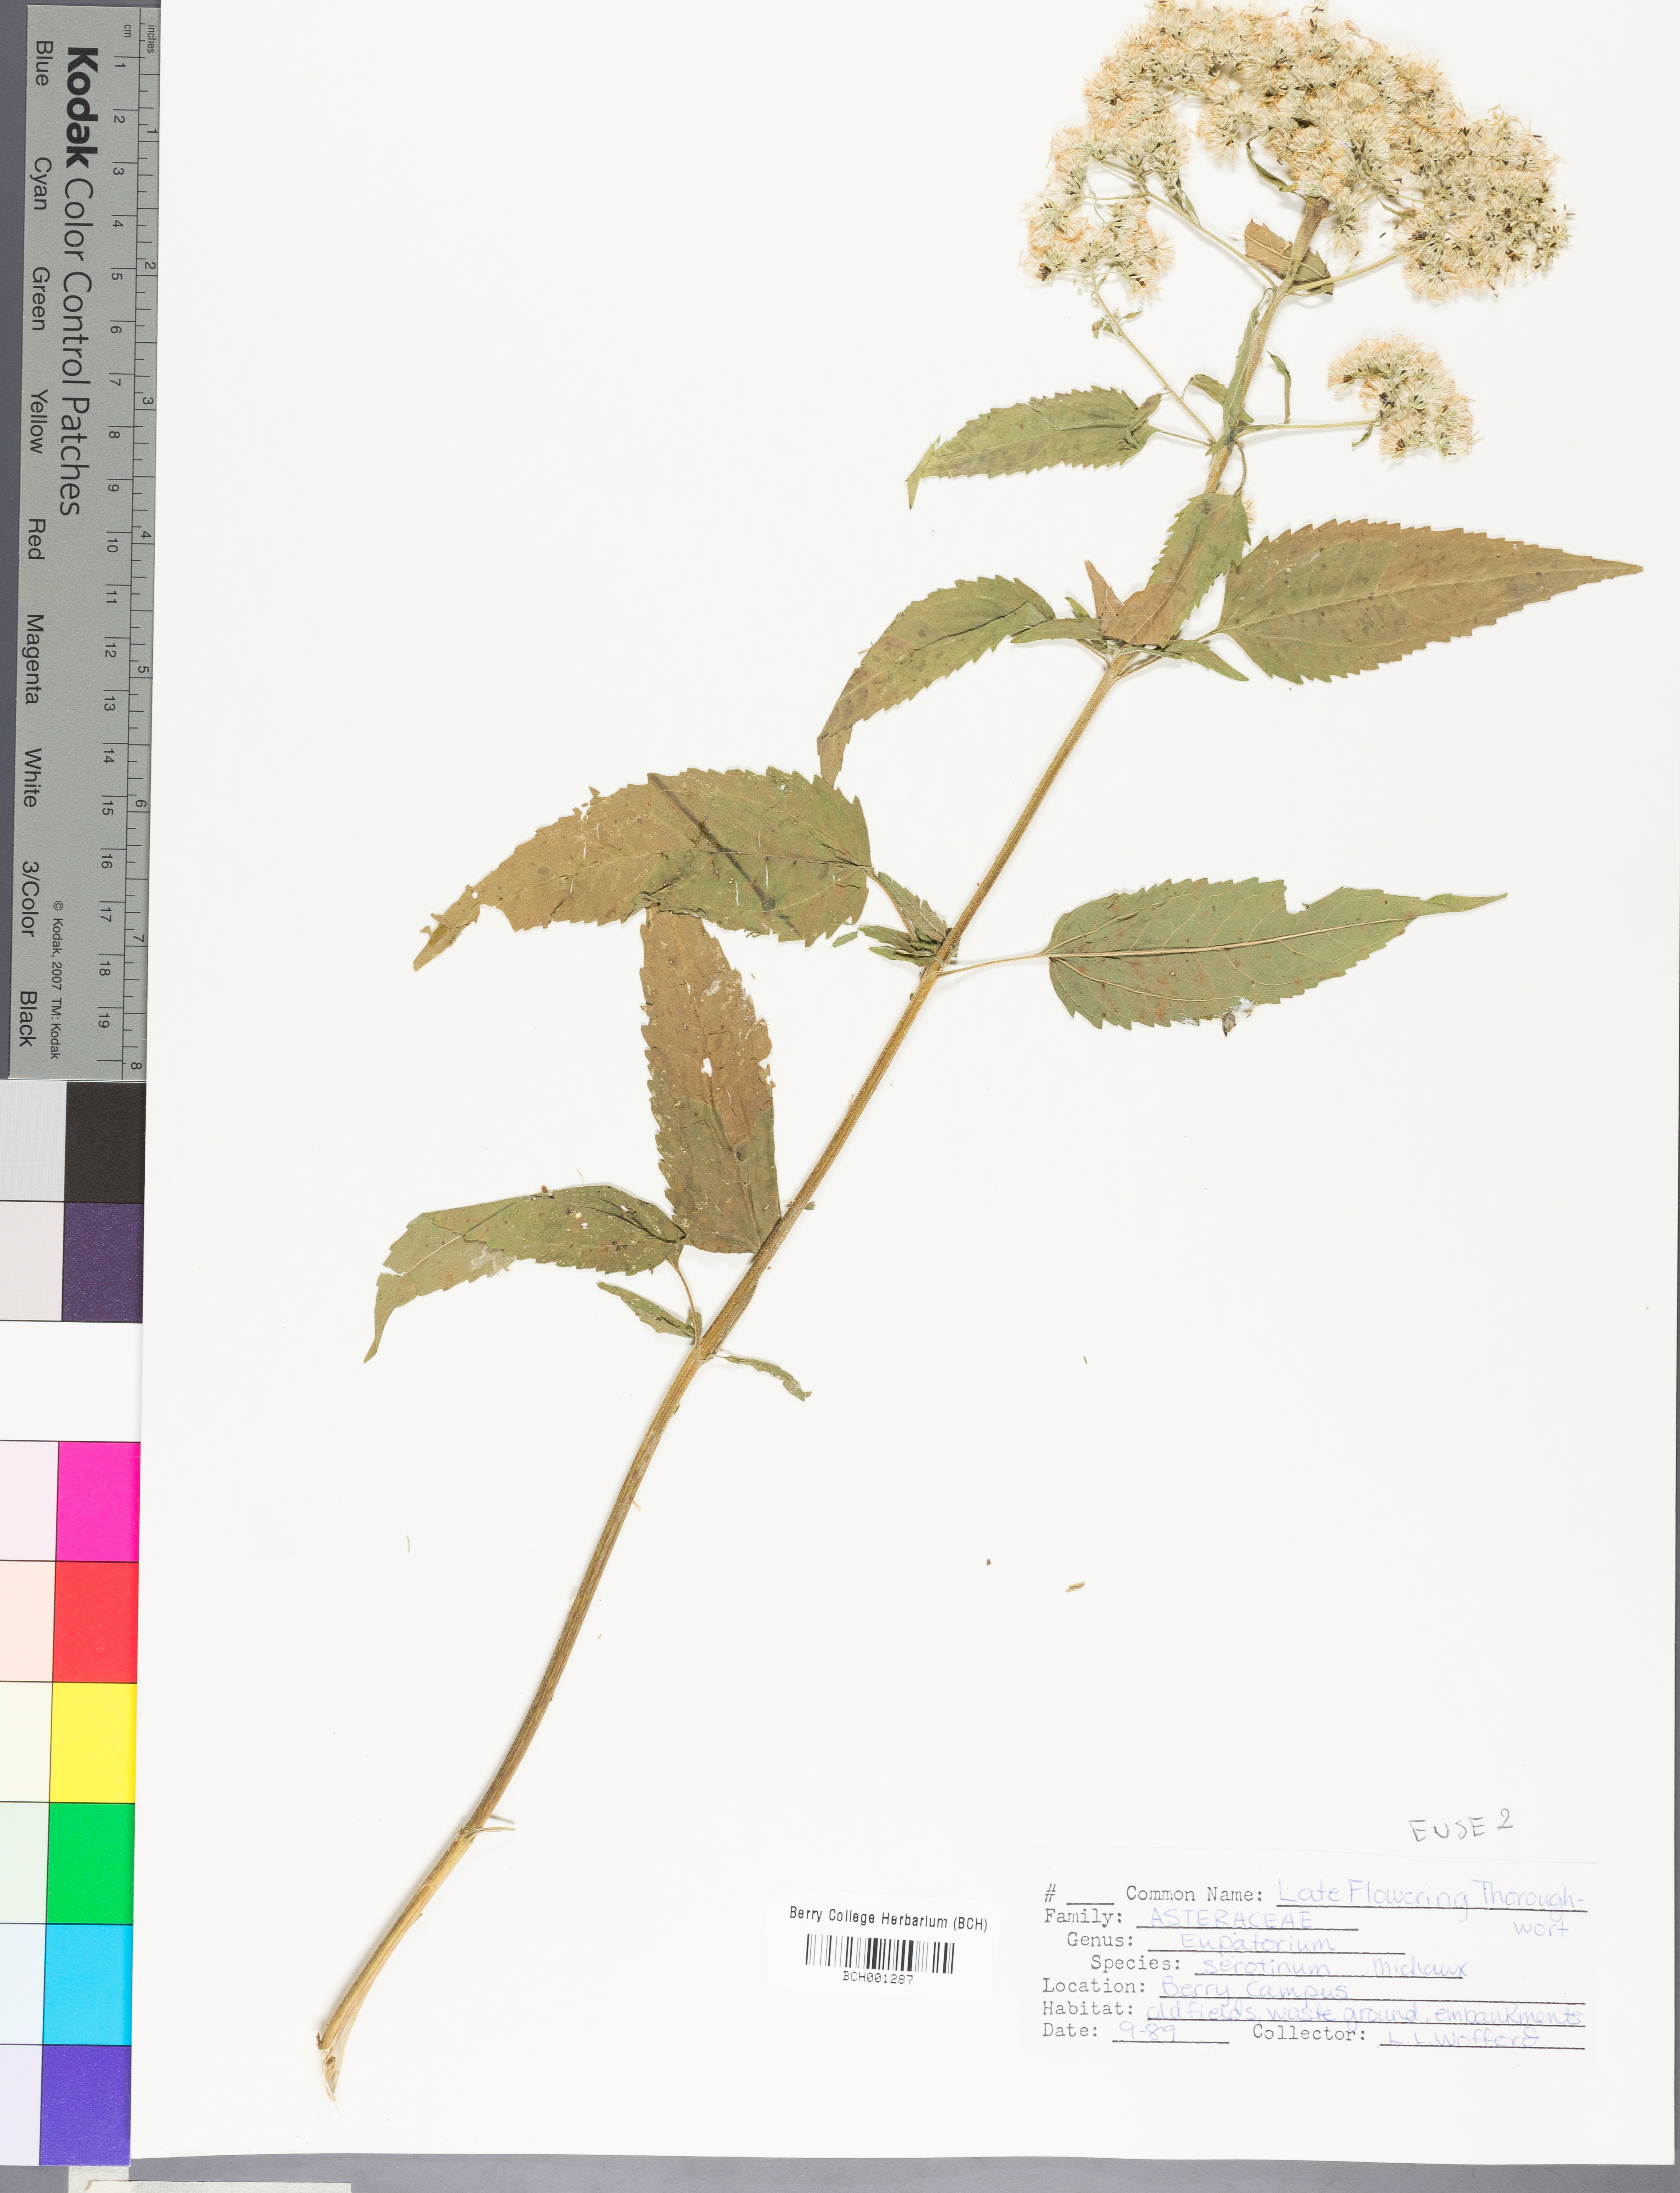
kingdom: Plantae
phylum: Tracheophyta
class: Magnoliopsida
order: Asterales
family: Asteraceae
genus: Eupatorium
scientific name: Eupatorium perfoliatum
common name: Boneset
